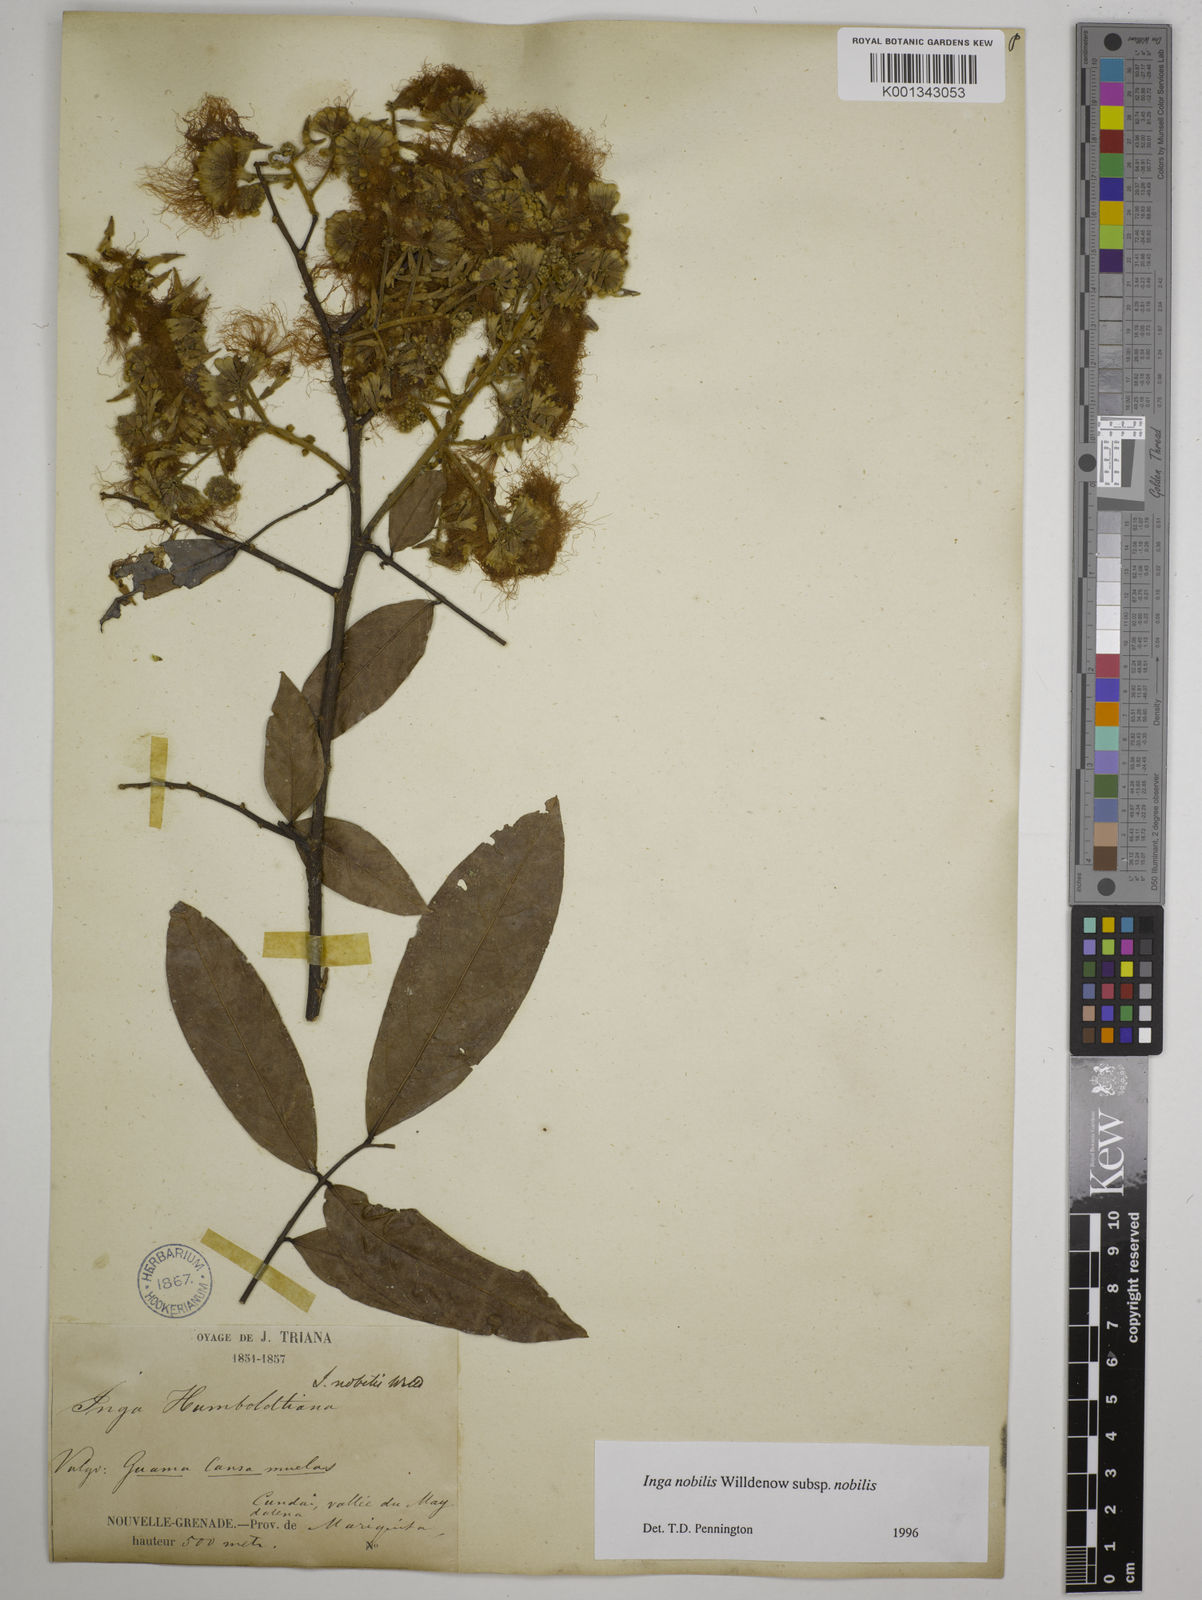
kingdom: Plantae
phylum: Tracheophyta
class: Magnoliopsida
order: Fabales
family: Fabaceae
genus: Inga
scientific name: Inga nobilis
